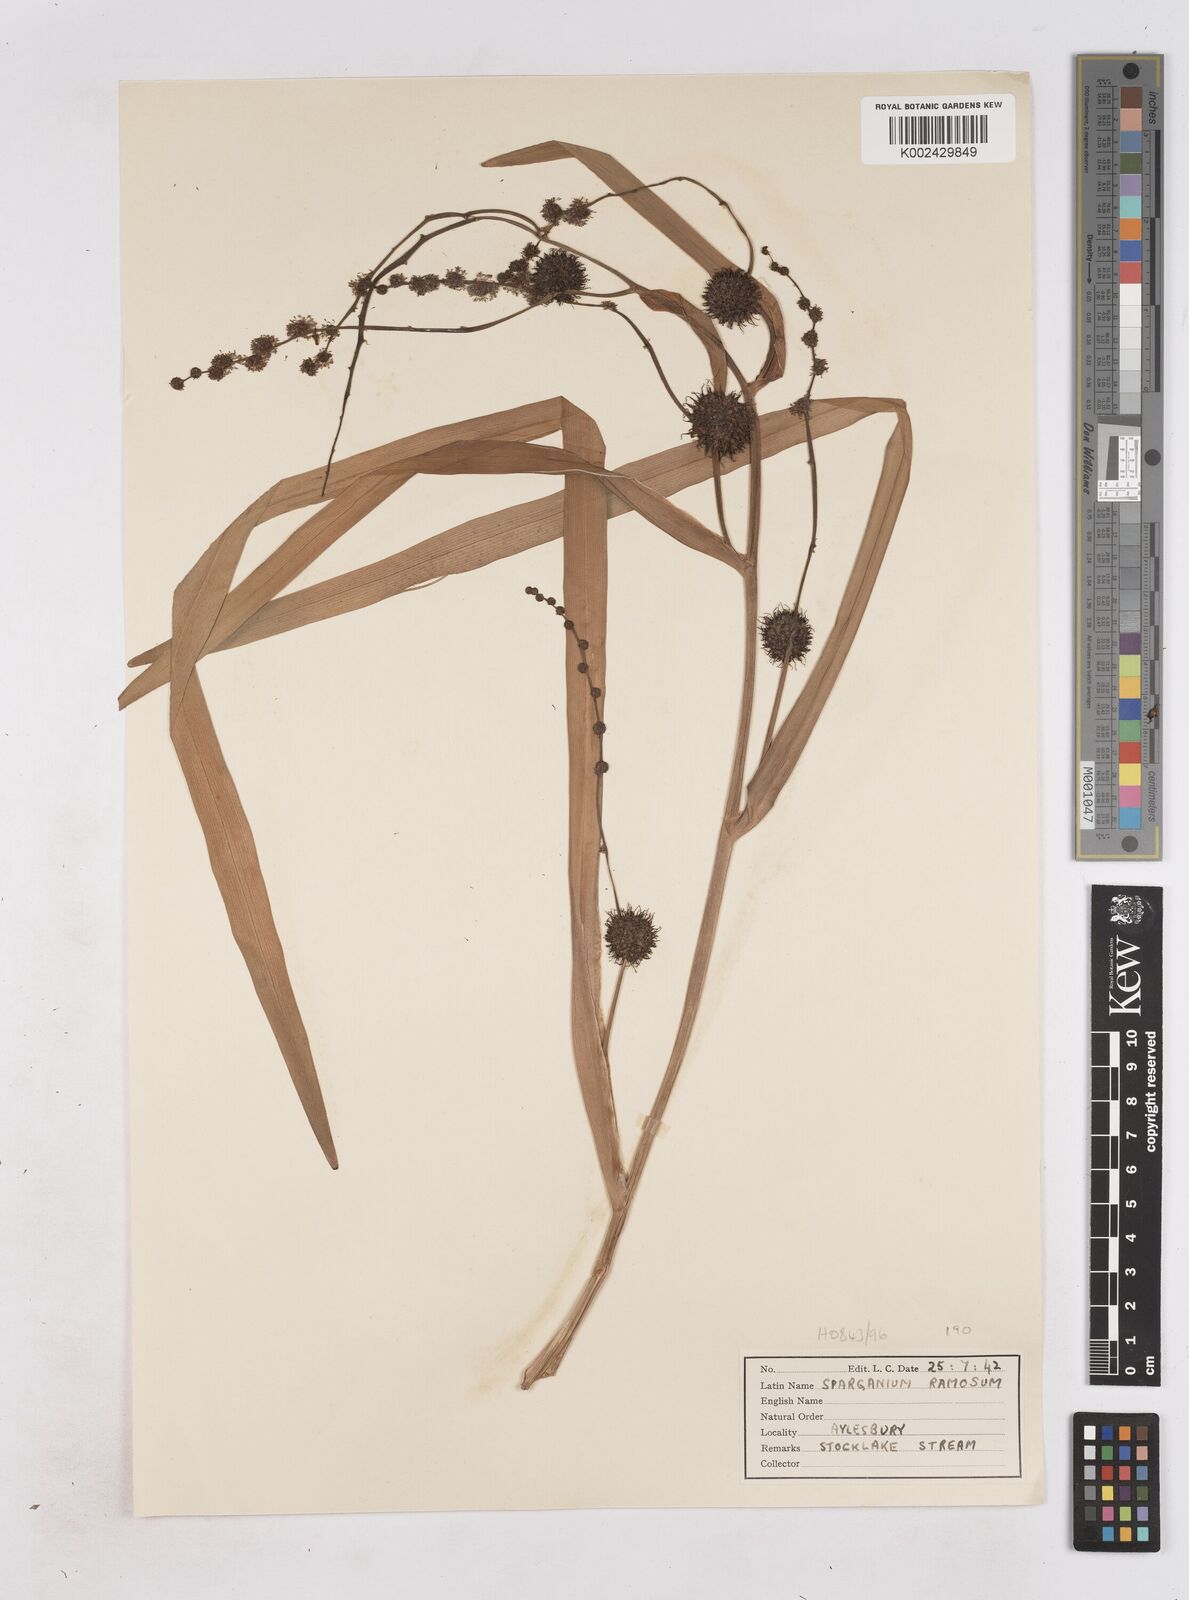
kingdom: Plantae
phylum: Tracheophyta
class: Liliopsida
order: Poales
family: Typhaceae
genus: Sparganium
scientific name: Sparganium erectum
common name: Branched bur-reed
